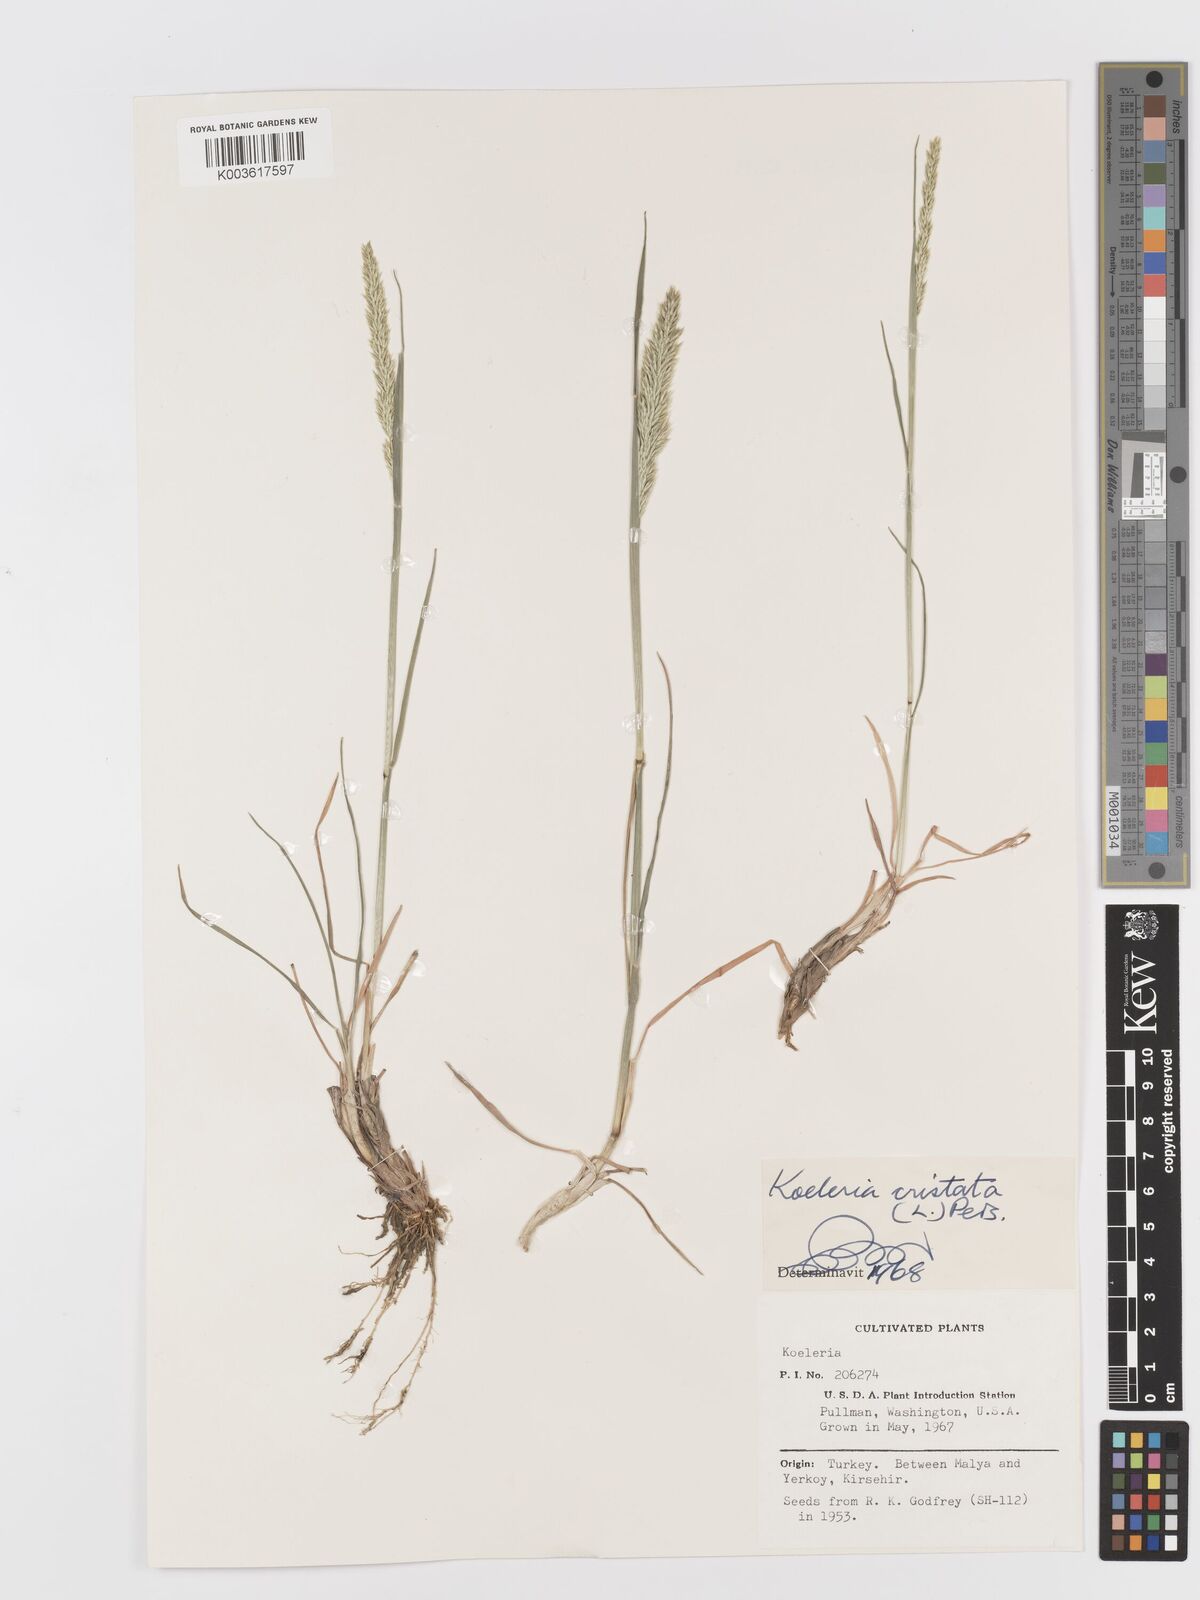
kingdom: Plantae
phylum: Tracheophyta
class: Liliopsida
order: Poales
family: Poaceae
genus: Koeleria
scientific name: Koeleria macrantha
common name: Crested hair-grass
